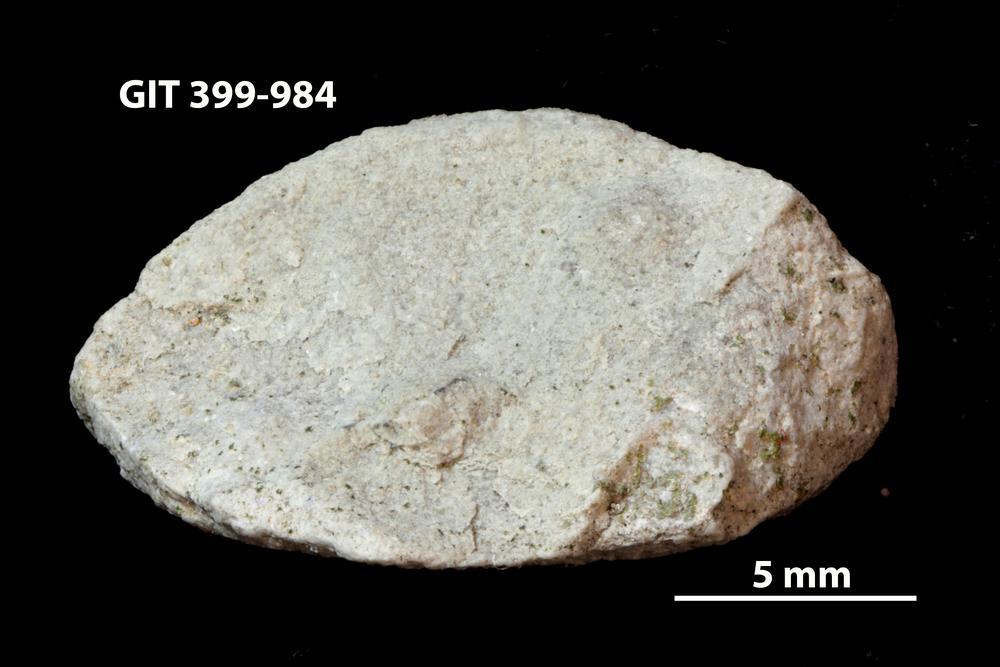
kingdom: Animalia
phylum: Annelida
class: Polychaeta
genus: Hyolithes
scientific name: Hyolithes
